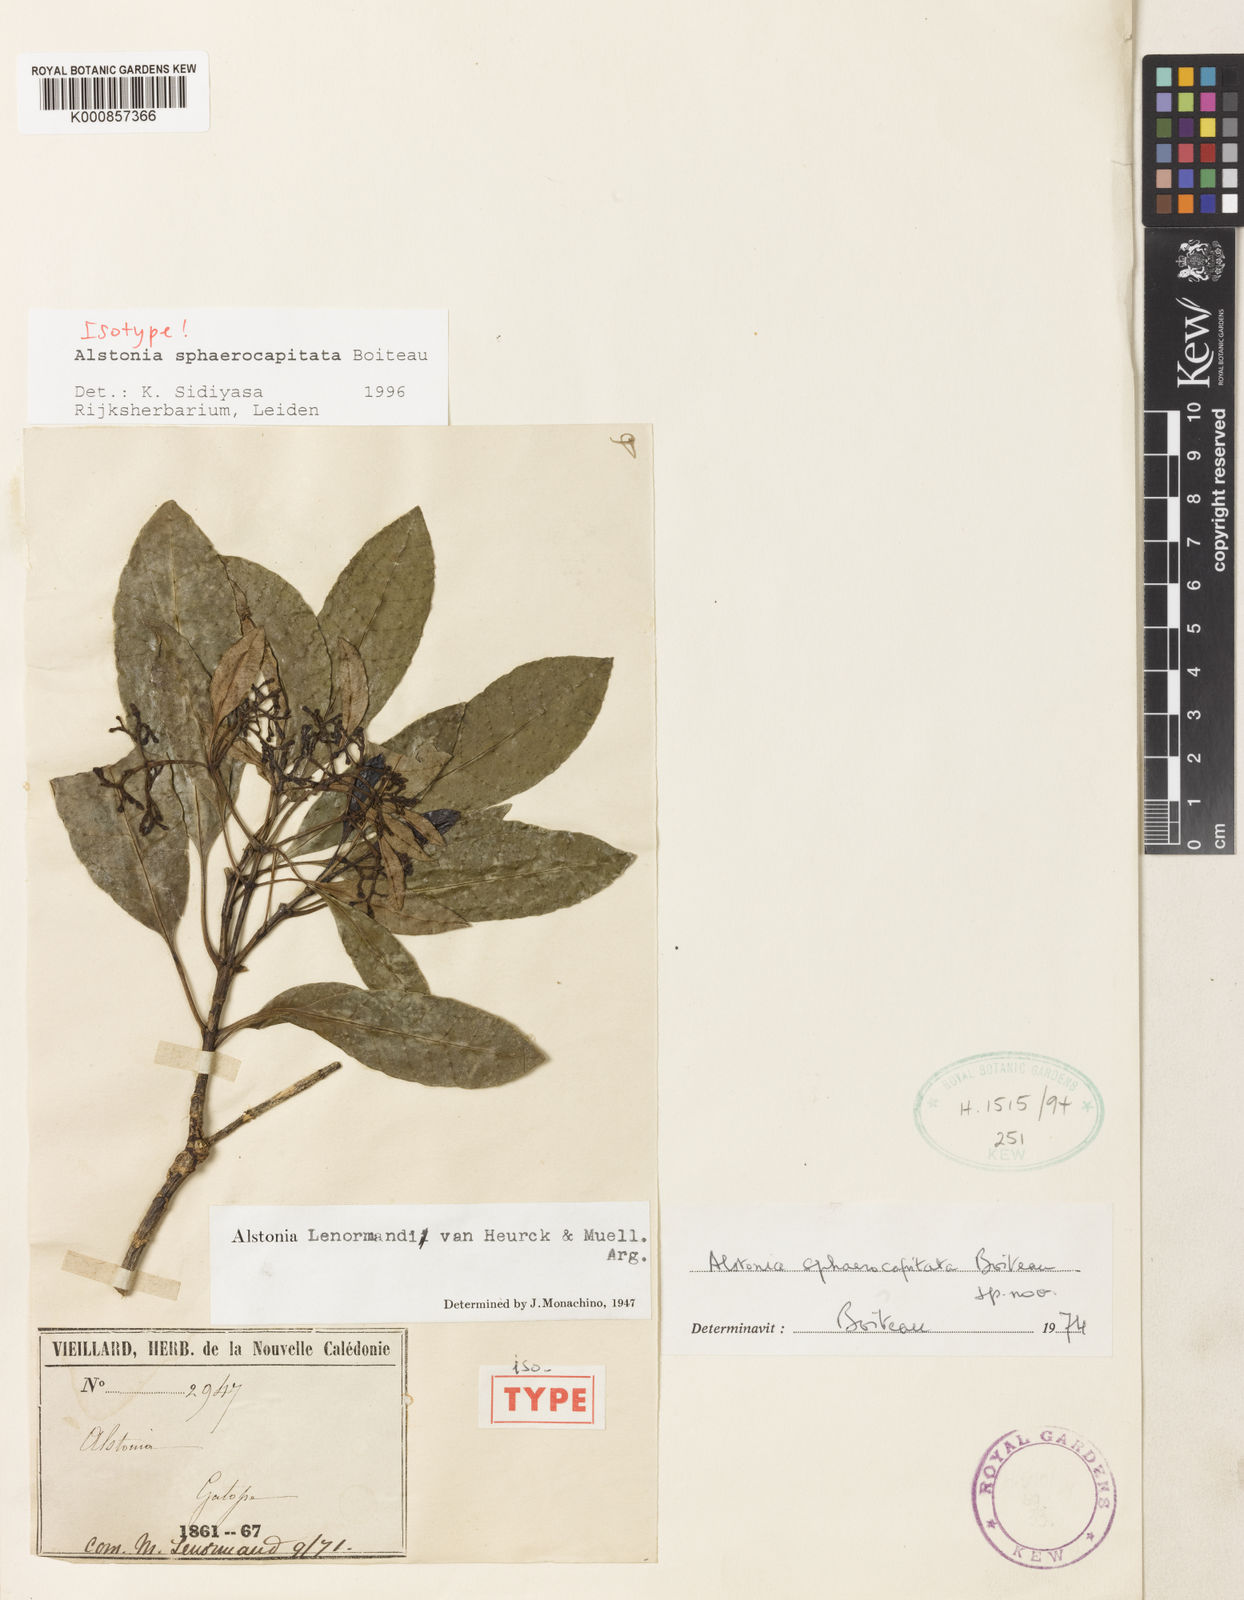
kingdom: Plantae
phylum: Tracheophyta
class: Magnoliopsida
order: Gentianales
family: Apocynaceae
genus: Alstonia
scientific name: Alstonia sphaerocapitata
